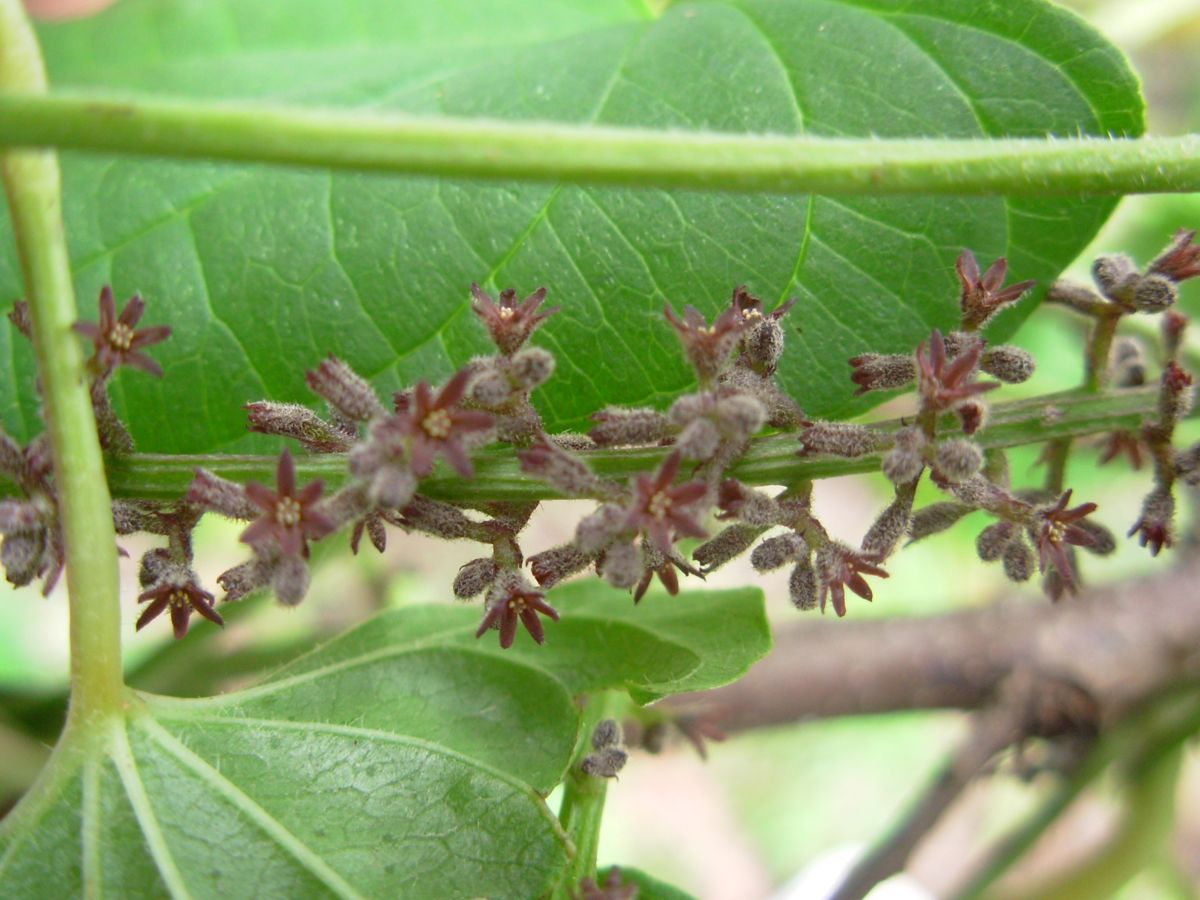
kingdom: Plantae
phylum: Tracheophyta
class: Liliopsida
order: Dioscoreales
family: Dioscoreaceae
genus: Dioscorea
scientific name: Dioscorea pilosiuscula
